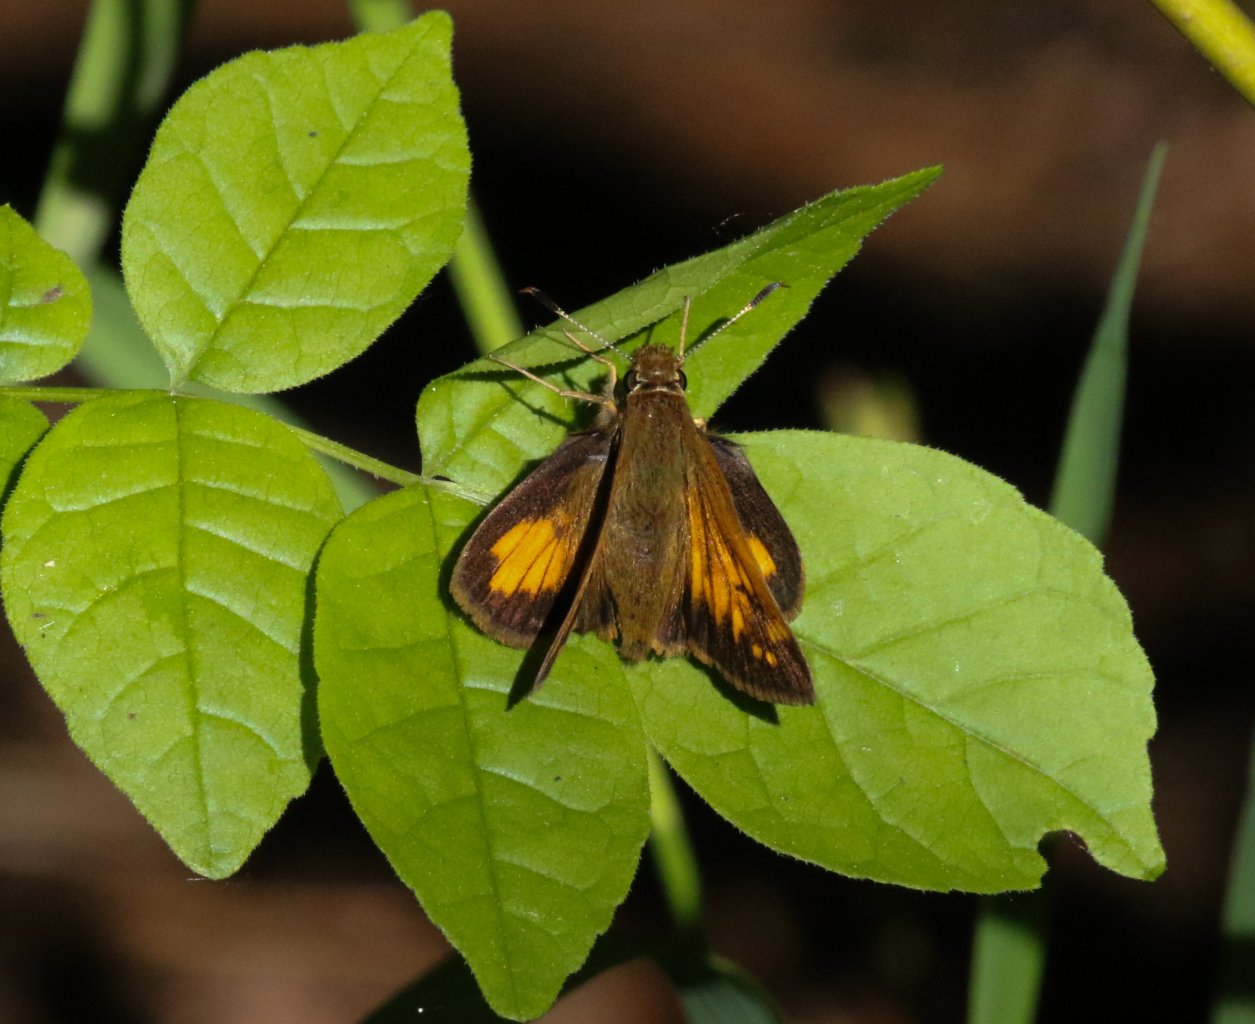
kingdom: Animalia
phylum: Arthropoda
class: Insecta
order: Lepidoptera
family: Hesperiidae
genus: Lon
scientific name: Lon hobomok
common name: Hobomok Skipper
